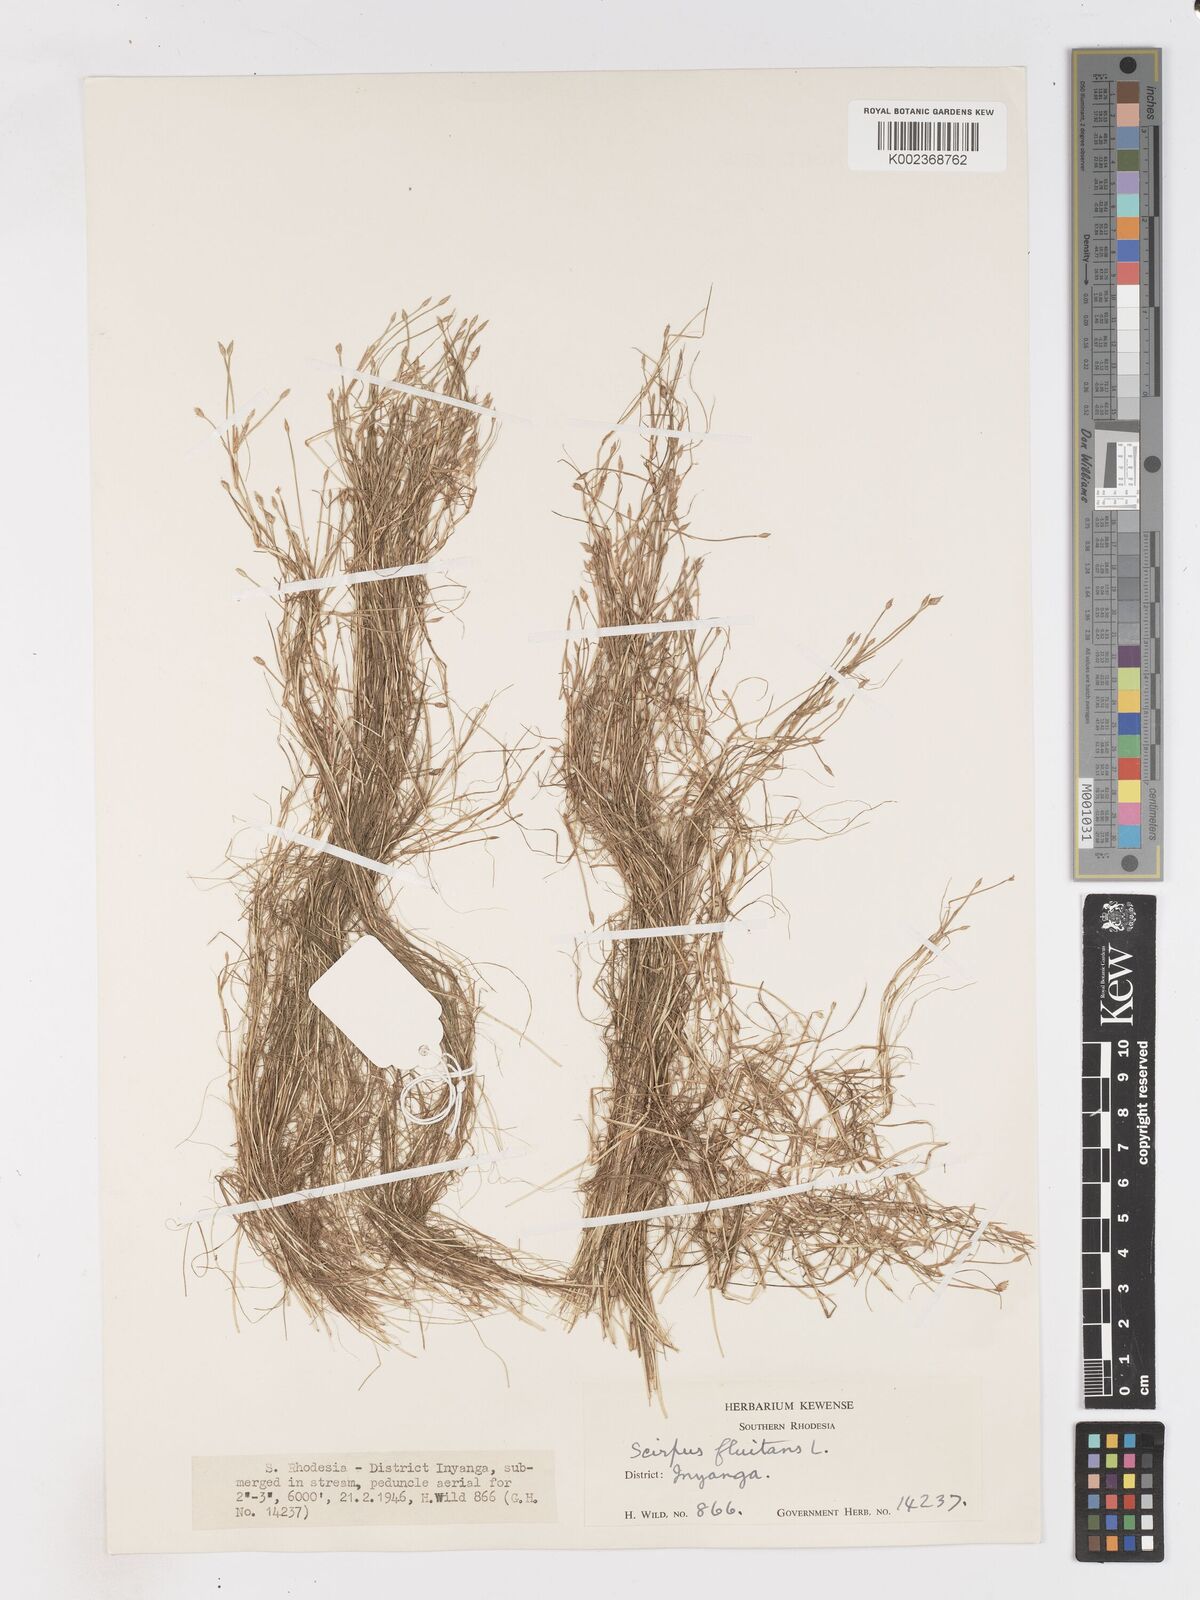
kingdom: Plantae
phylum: Tracheophyta
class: Liliopsida
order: Poales
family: Cyperaceae
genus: Isolepis
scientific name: Isolepis fluitans
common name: Floating club-rush
